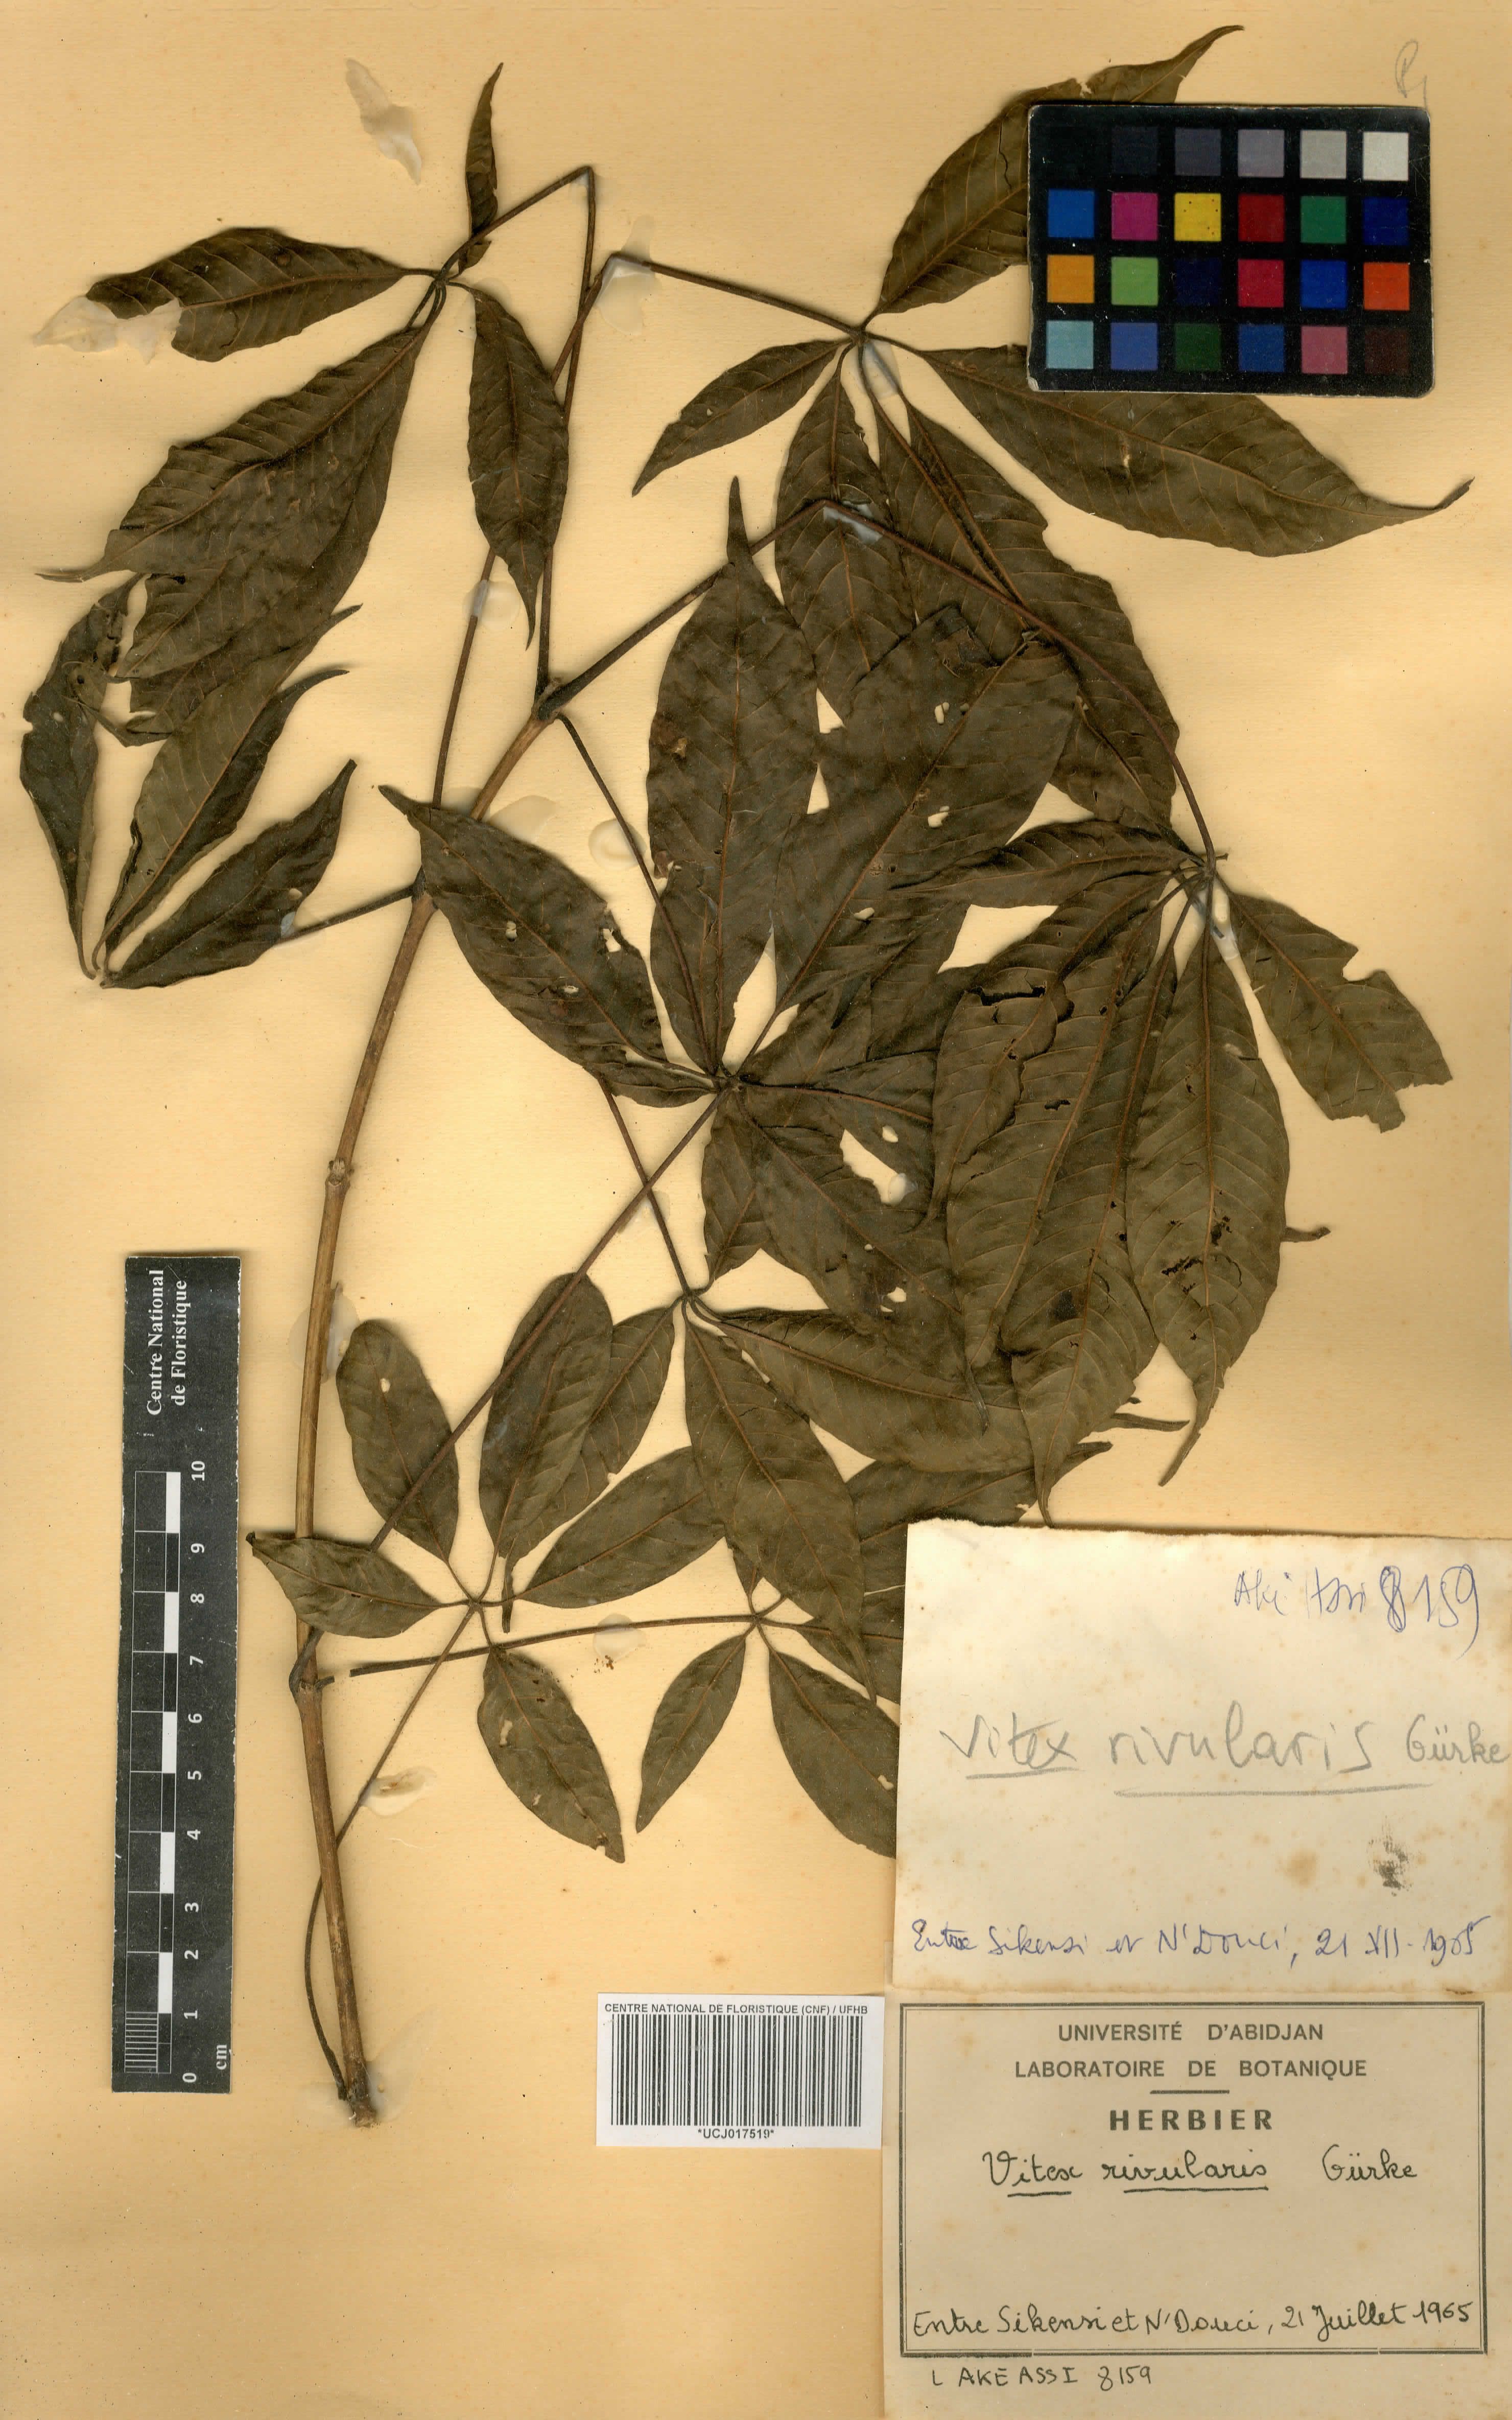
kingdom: Plantae
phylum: Tracheophyta
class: Magnoliopsida
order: Lamiales
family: Lamiaceae
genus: Vitex
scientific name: Vitex rivularis
